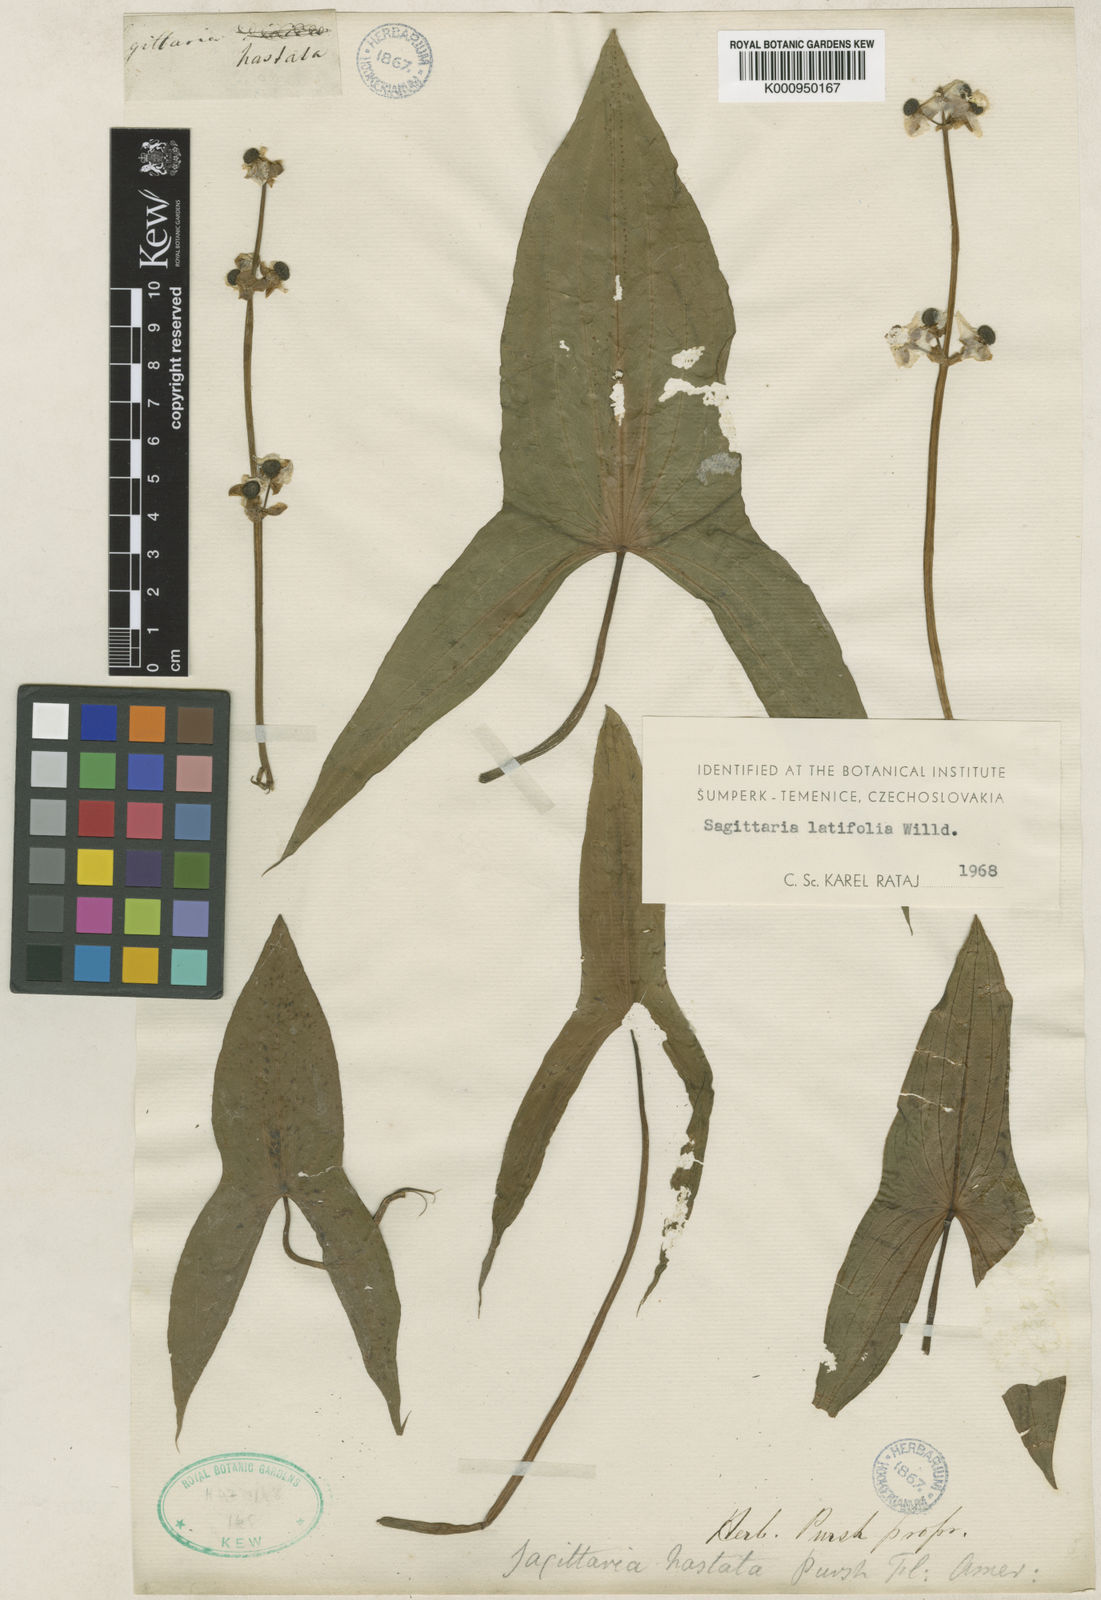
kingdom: Plantae
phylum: Tracheophyta
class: Liliopsida
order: Alismatales
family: Alismataceae
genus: Sagittaria
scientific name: Sagittaria latifolia
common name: Duck-potato
